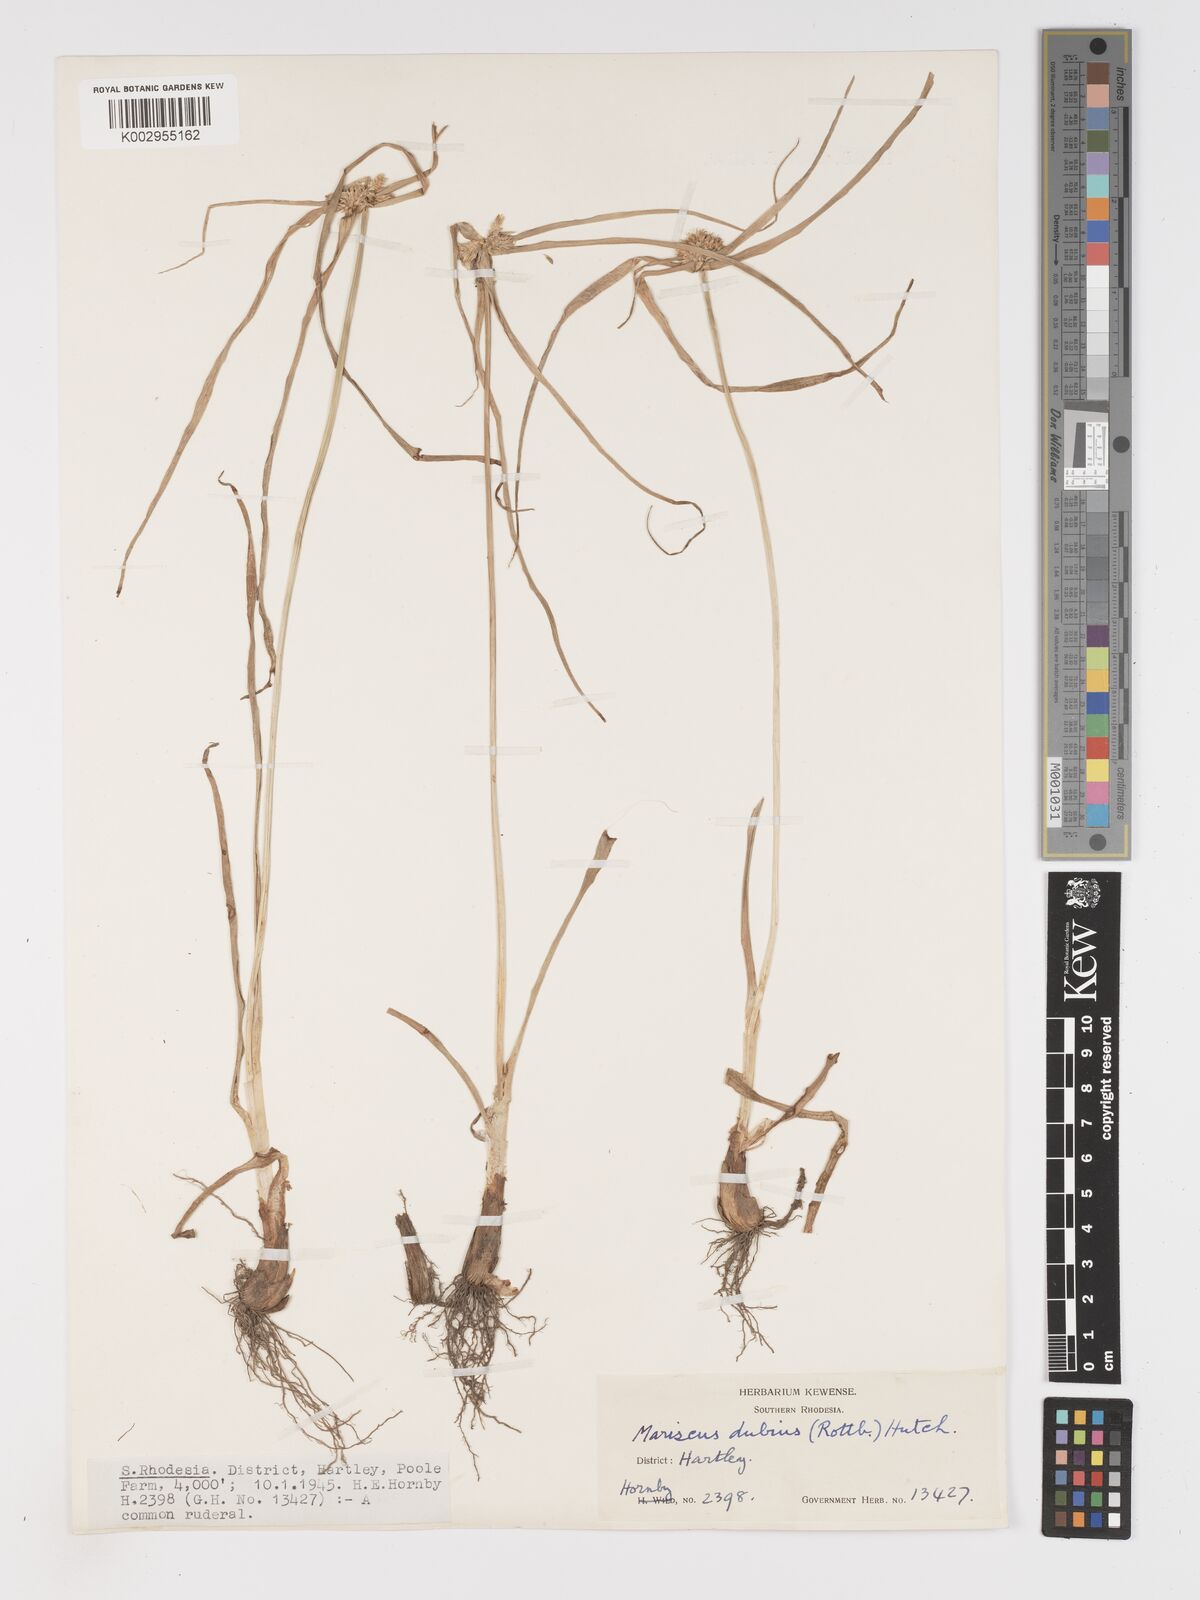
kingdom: Plantae
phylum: Tracheophyta
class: Liliopsida
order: Poales
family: Cyperaceae
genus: Cyperus
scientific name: Cyperus dubius
